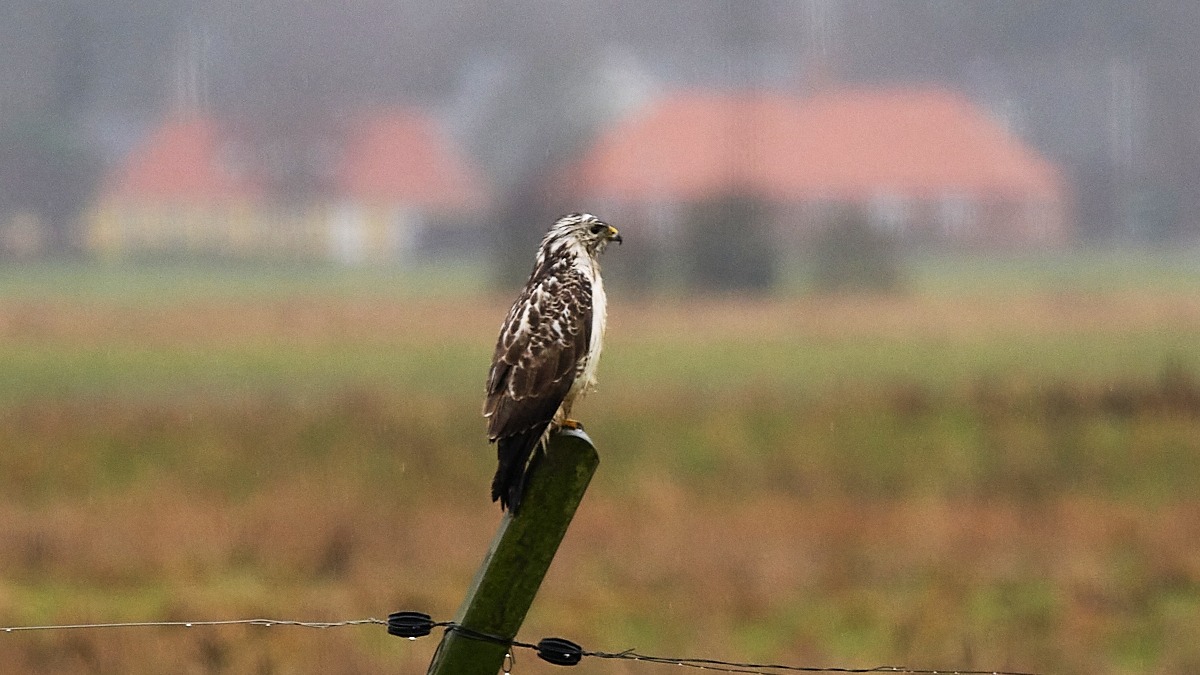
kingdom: Animalia
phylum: Chordata
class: Aves
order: Accipitriformes
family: Accipitridae
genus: Buteo
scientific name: Buteo buteo
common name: Musvåge
